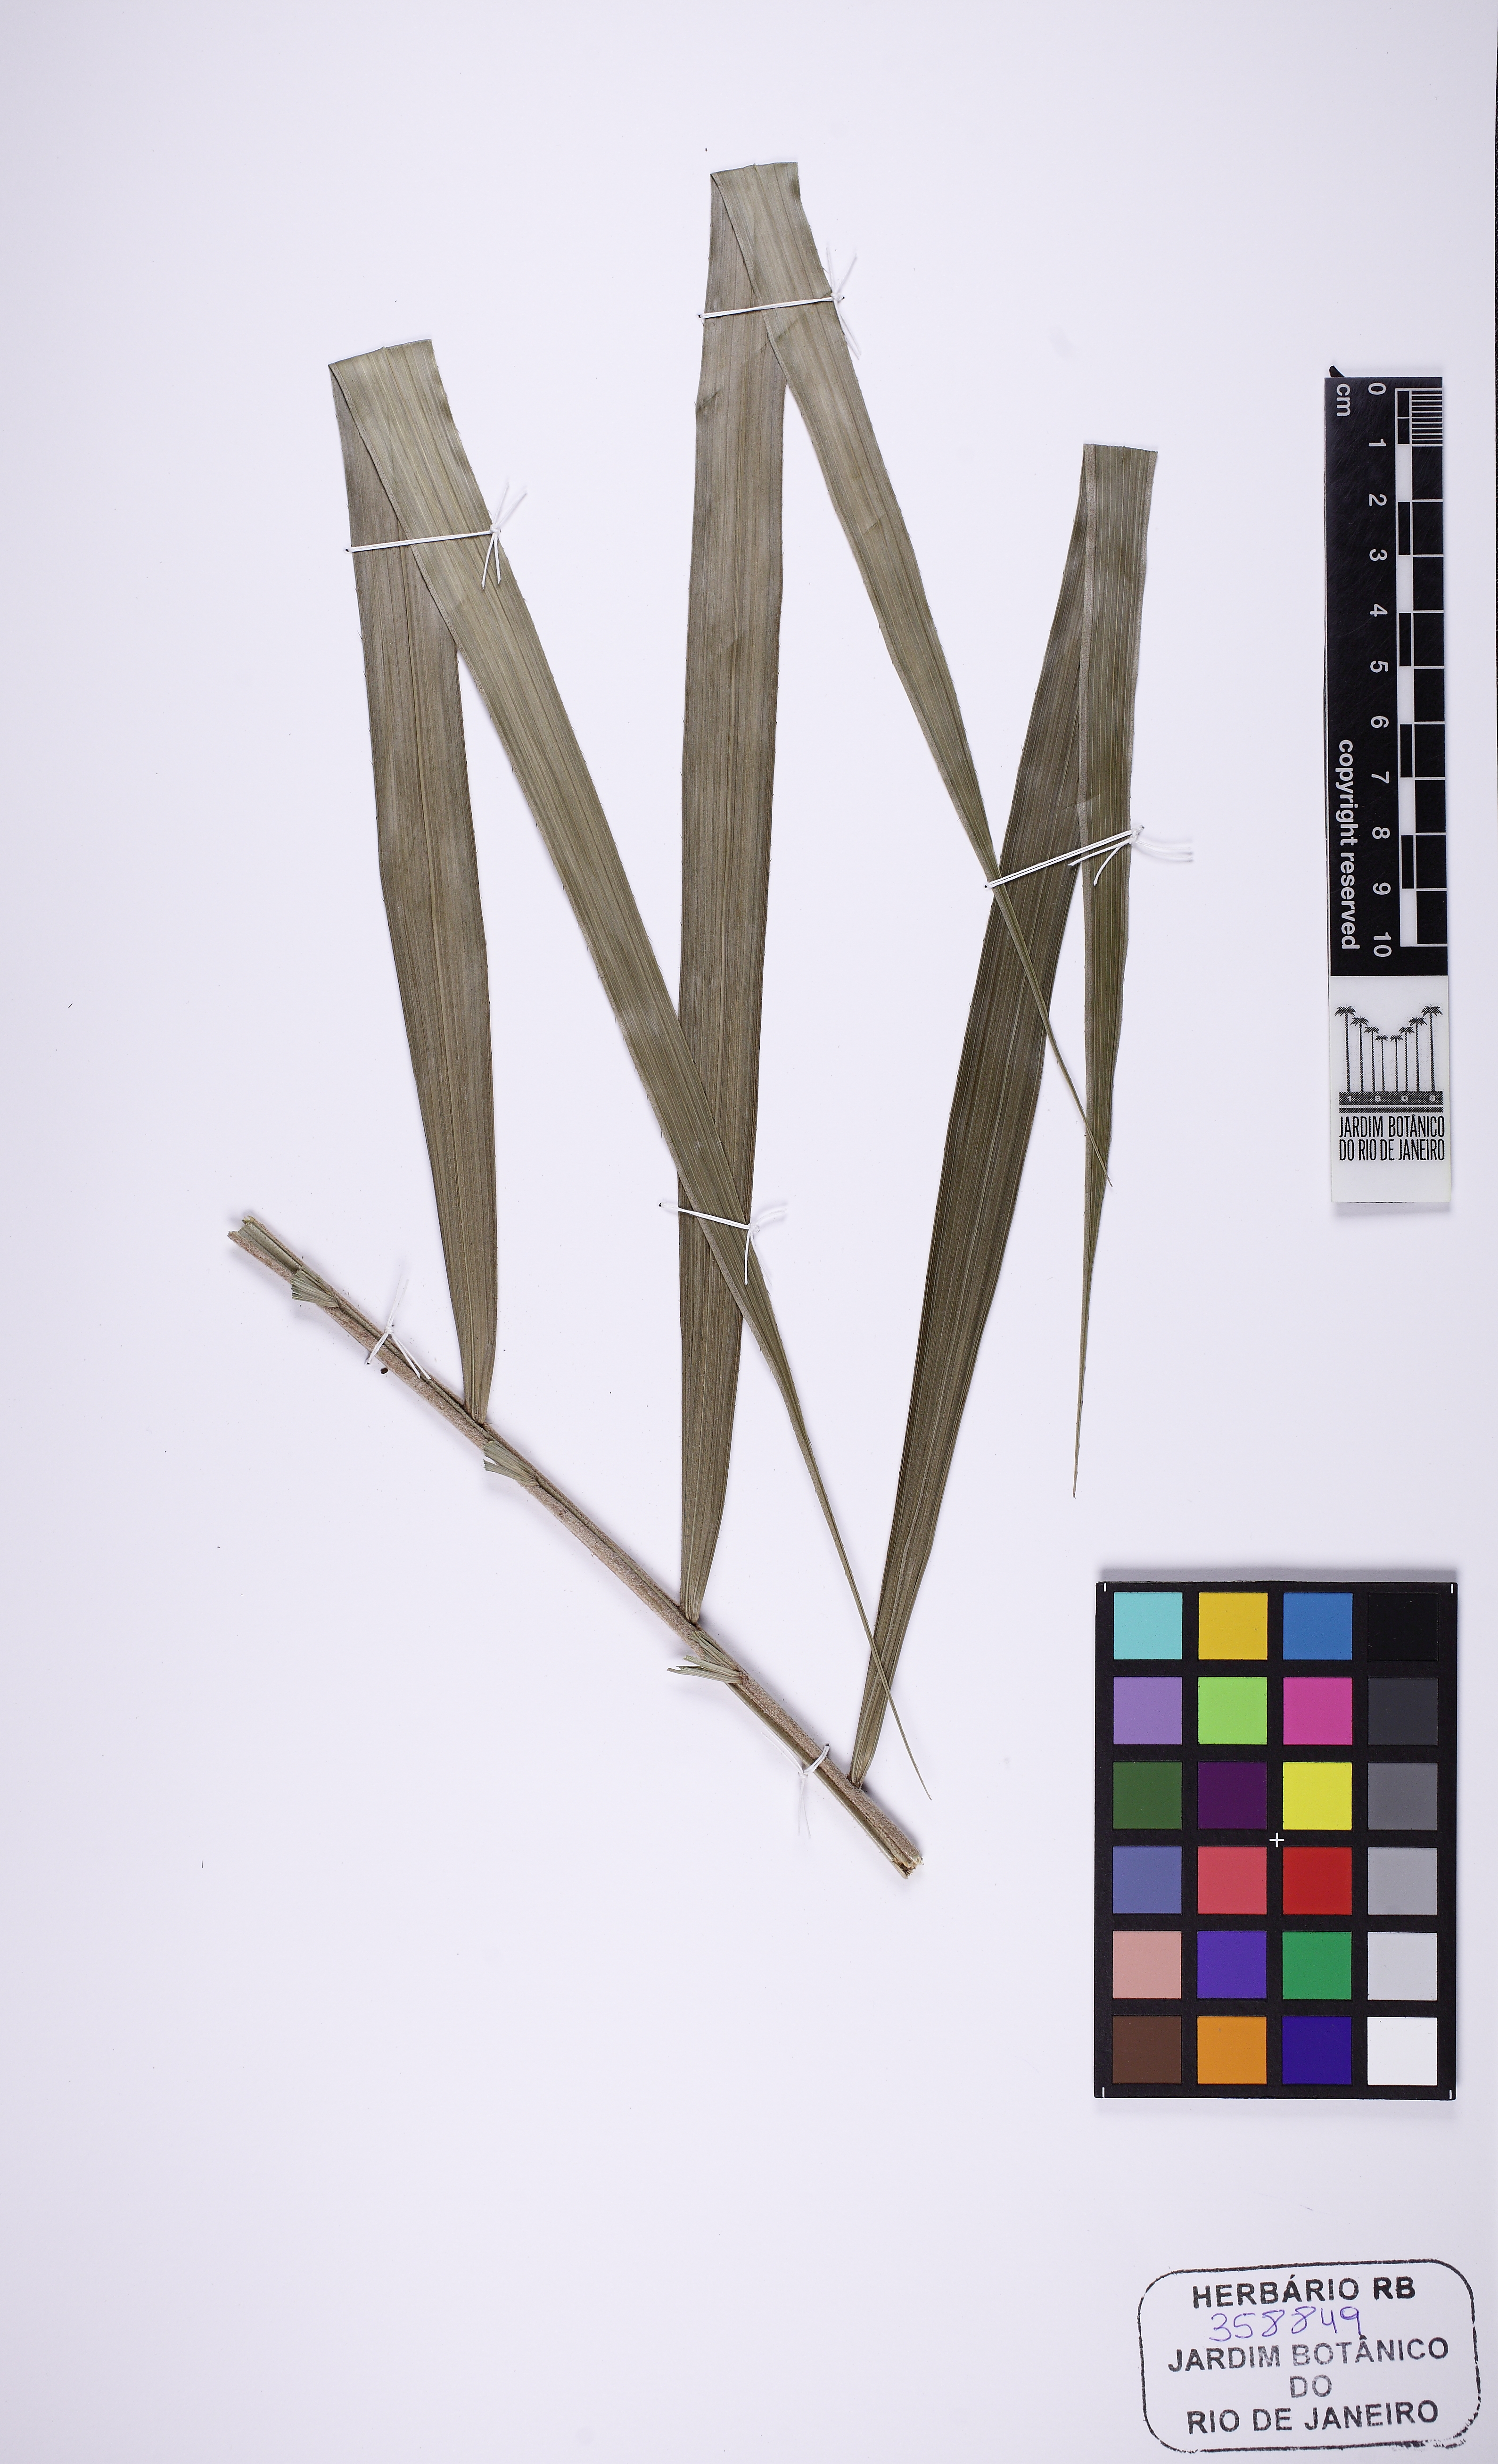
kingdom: Plantae
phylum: Tracheophyta
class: Liliopsida
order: Arecales
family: Arecaceae
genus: Bactris
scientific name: Bactris concinna
